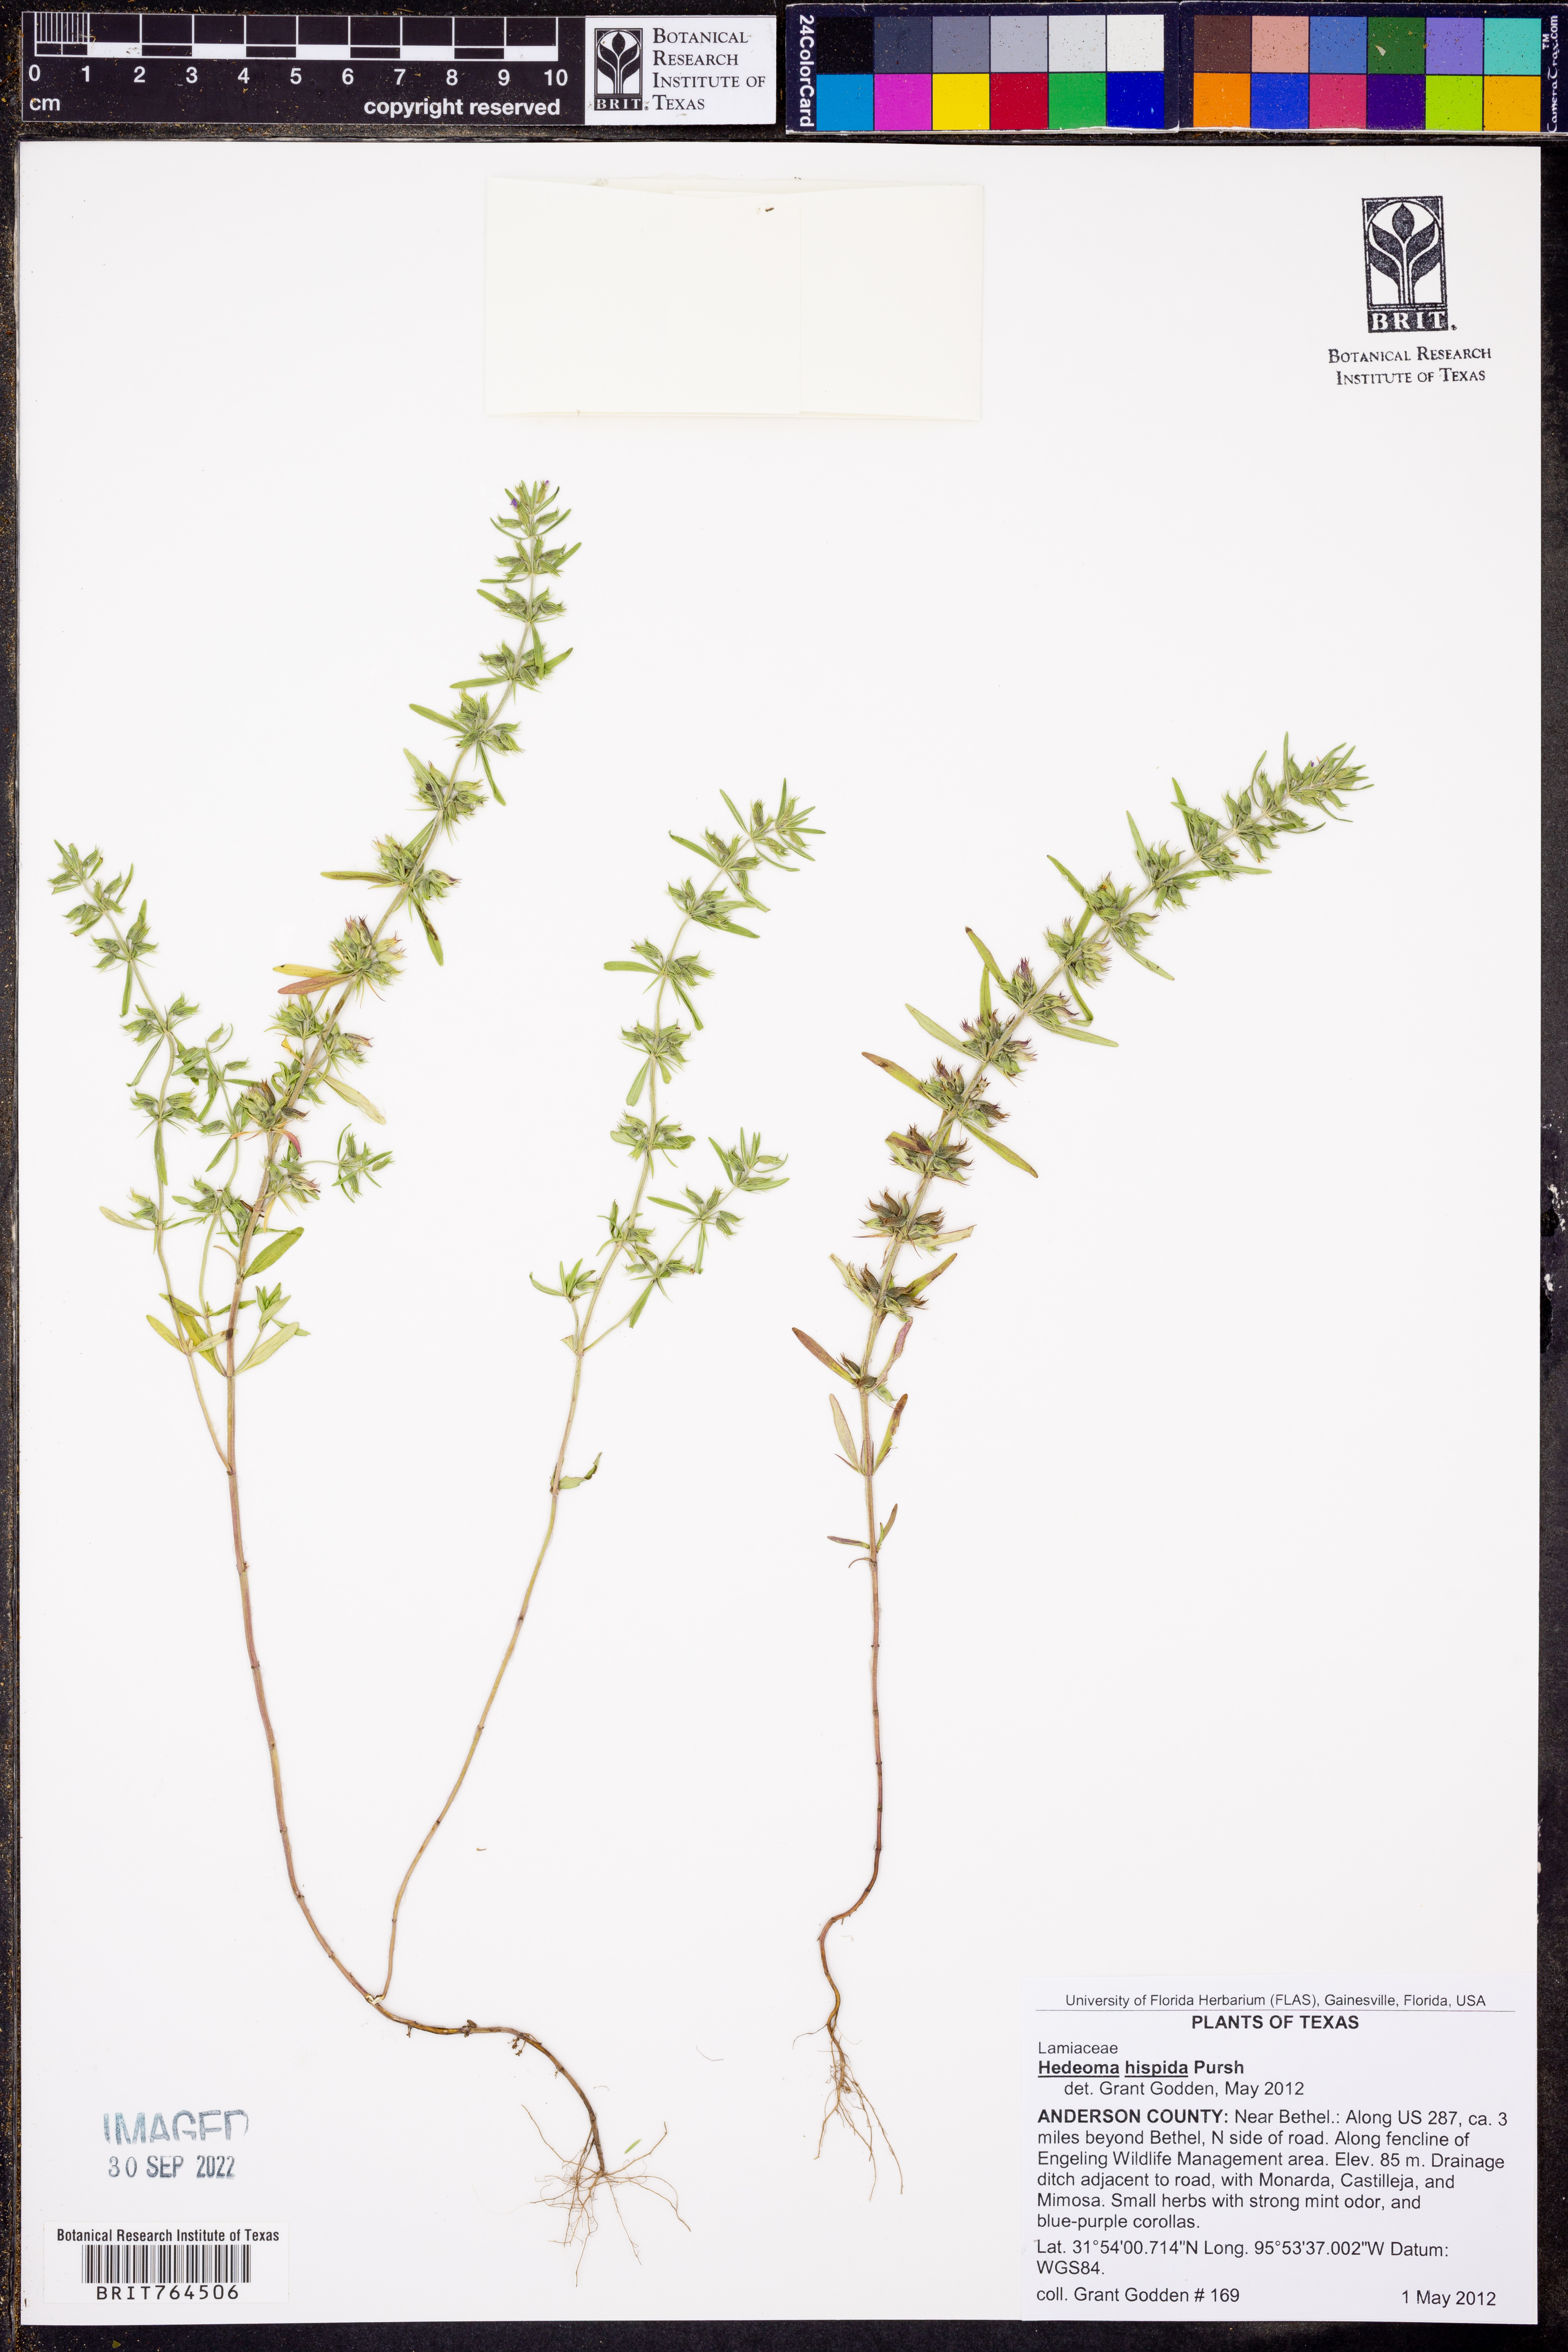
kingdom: Plantae
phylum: Tracheophyta
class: Magnoliopsida
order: Lamiales
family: Lamiaceae
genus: Hedeoma
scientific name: Hedeoma hispida
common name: Mock pennyroyal
